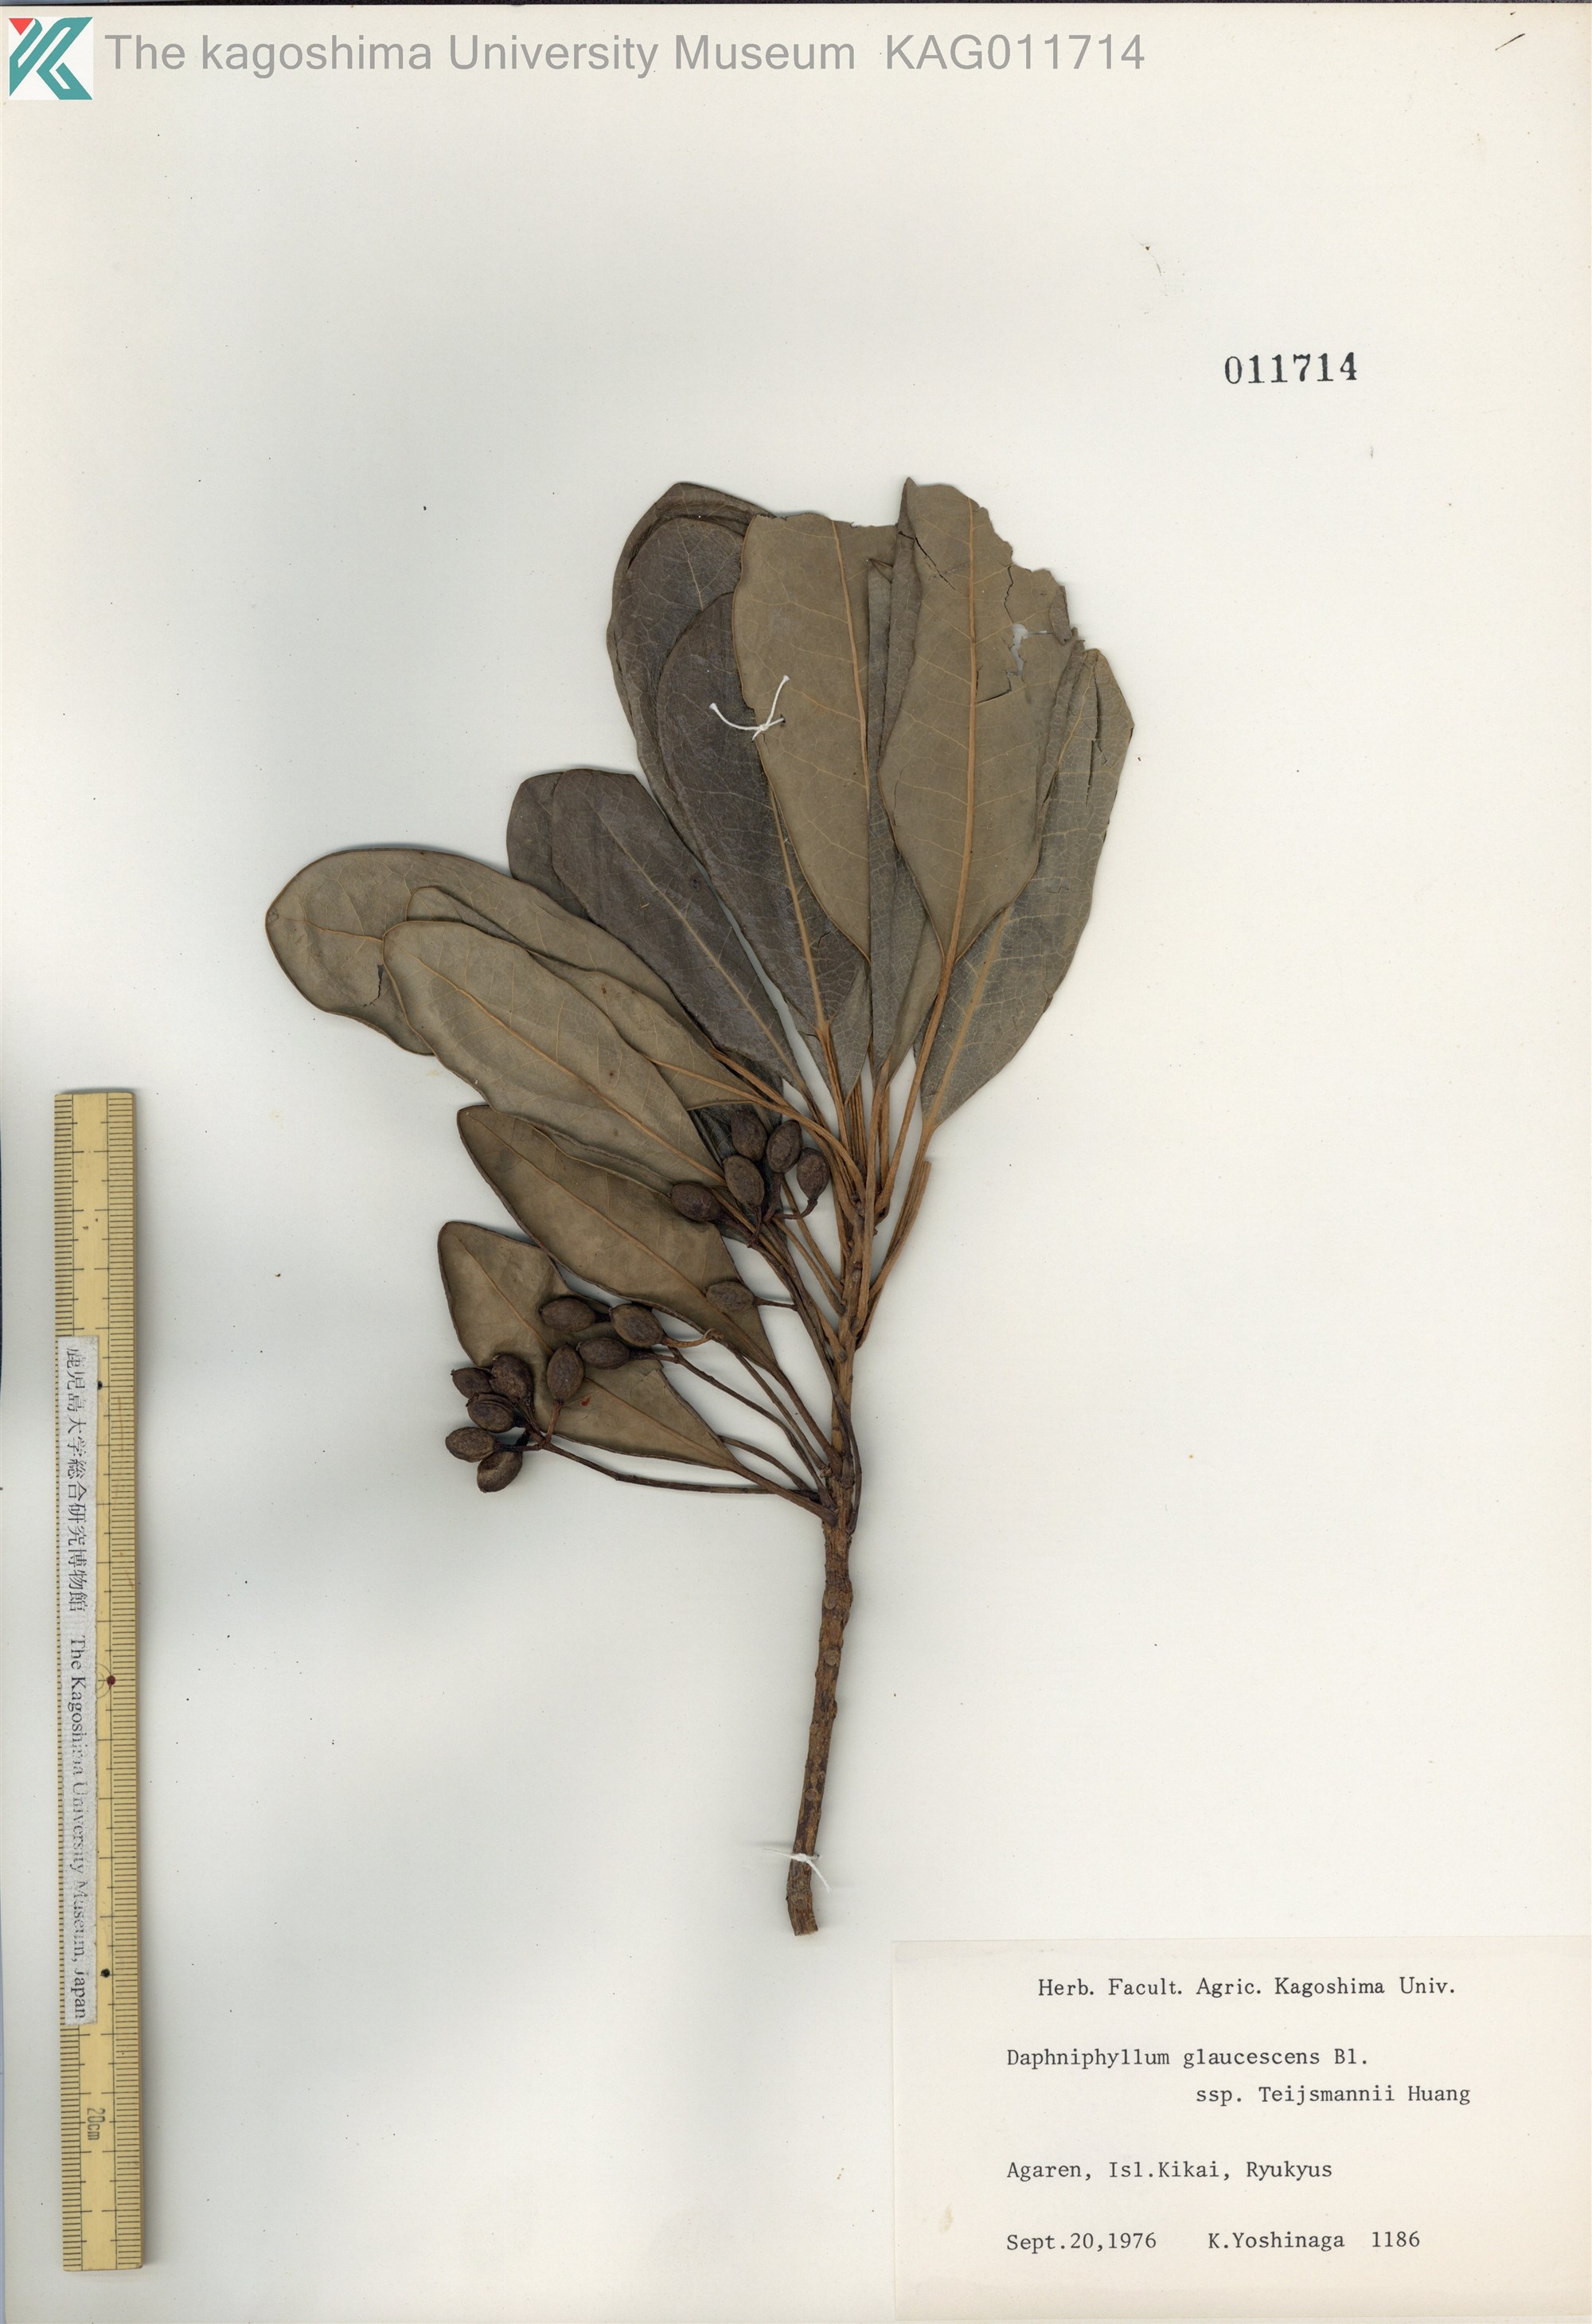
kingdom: Plantae
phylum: Tracheophyta
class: Magnoliopsida
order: Saxifragales
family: Daphniphyllaceae
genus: Daphniphyllum
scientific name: Daphniphyllum teijsmannii
